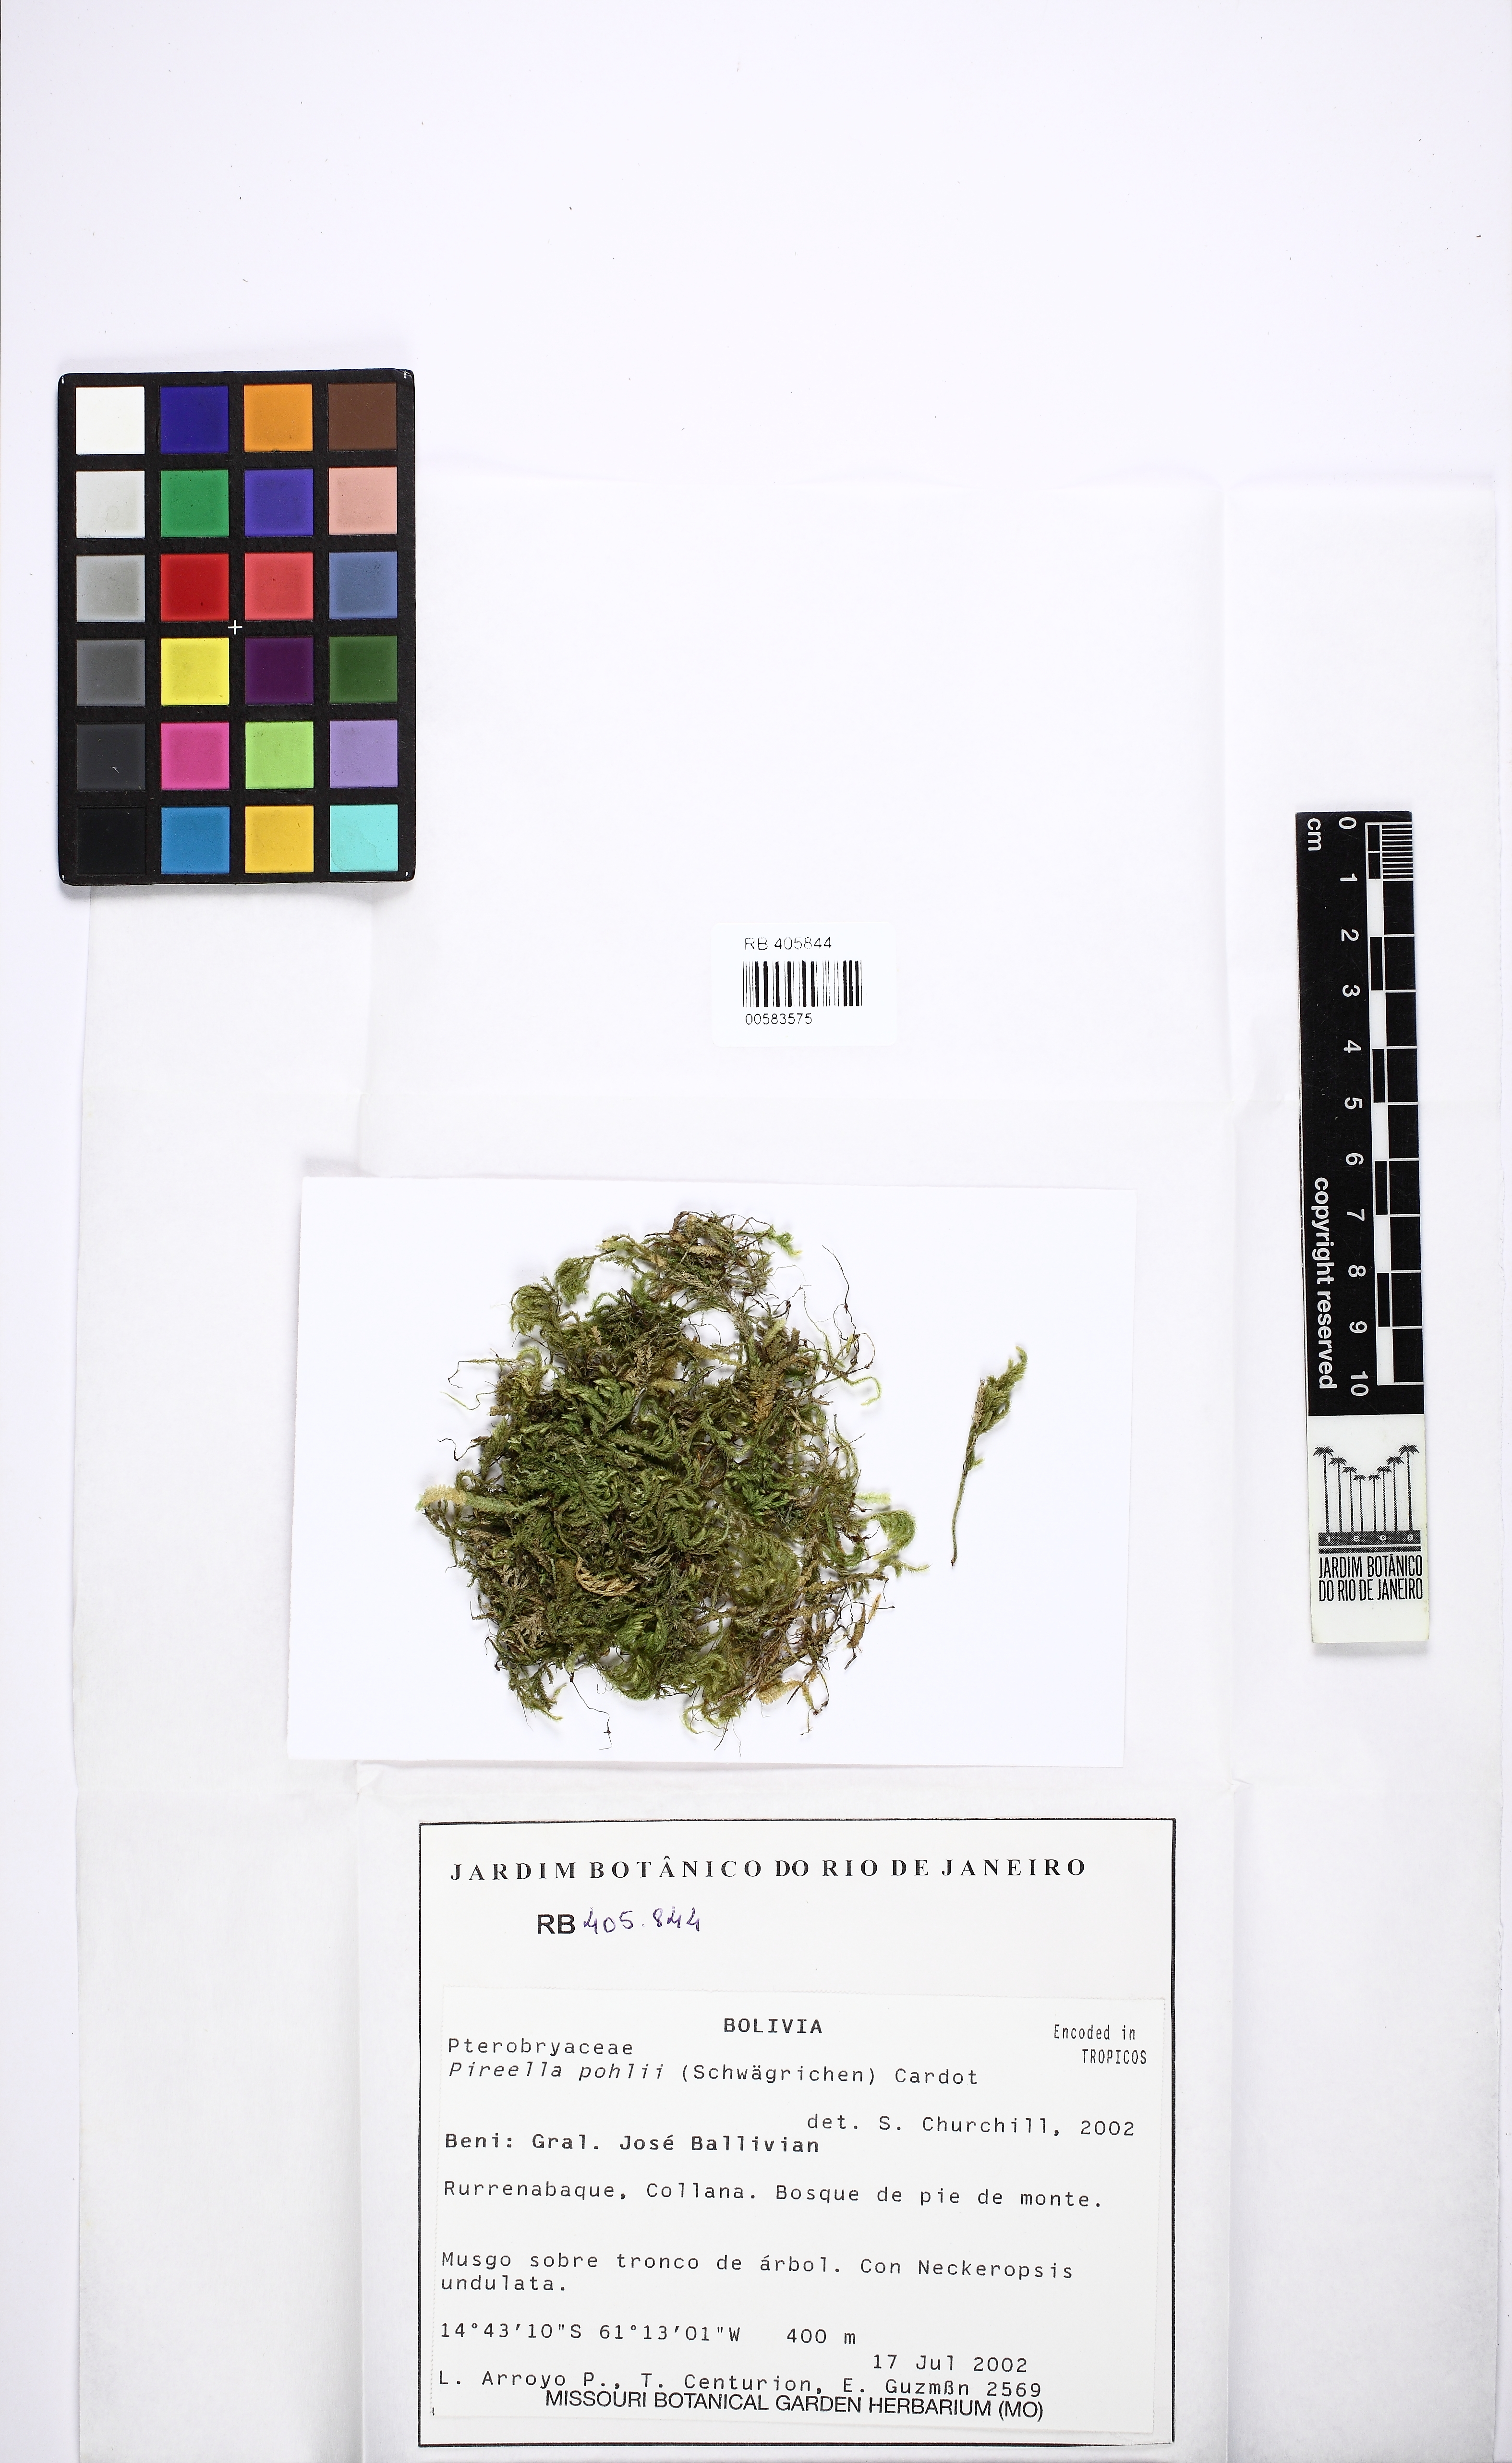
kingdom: Plantae
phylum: Bryophyta
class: Bryopsida
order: Hypnales
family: Pterobryaceae
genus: Pireella
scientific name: Pireella pohlii
